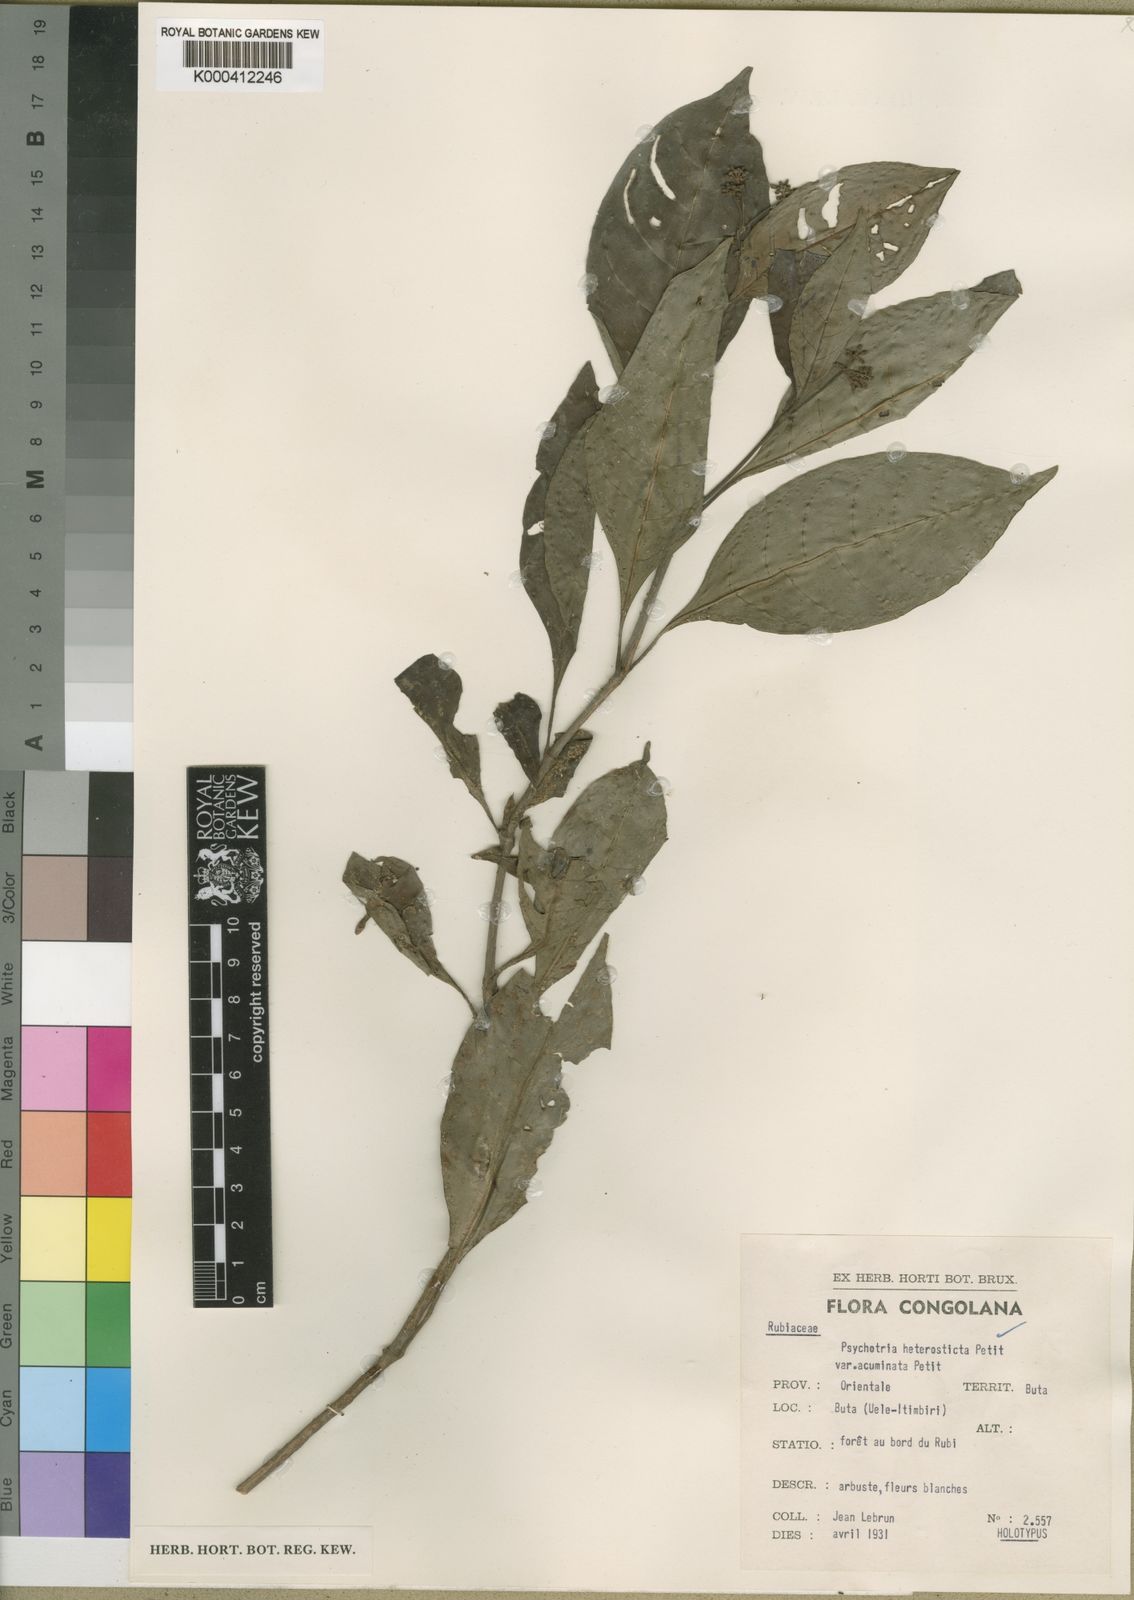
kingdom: Plantae
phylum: Tracheophyta
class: Magnoliopsida
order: Gentianales
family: Rubiaceae
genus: Psychotria
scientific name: Psychotria heterosticta
